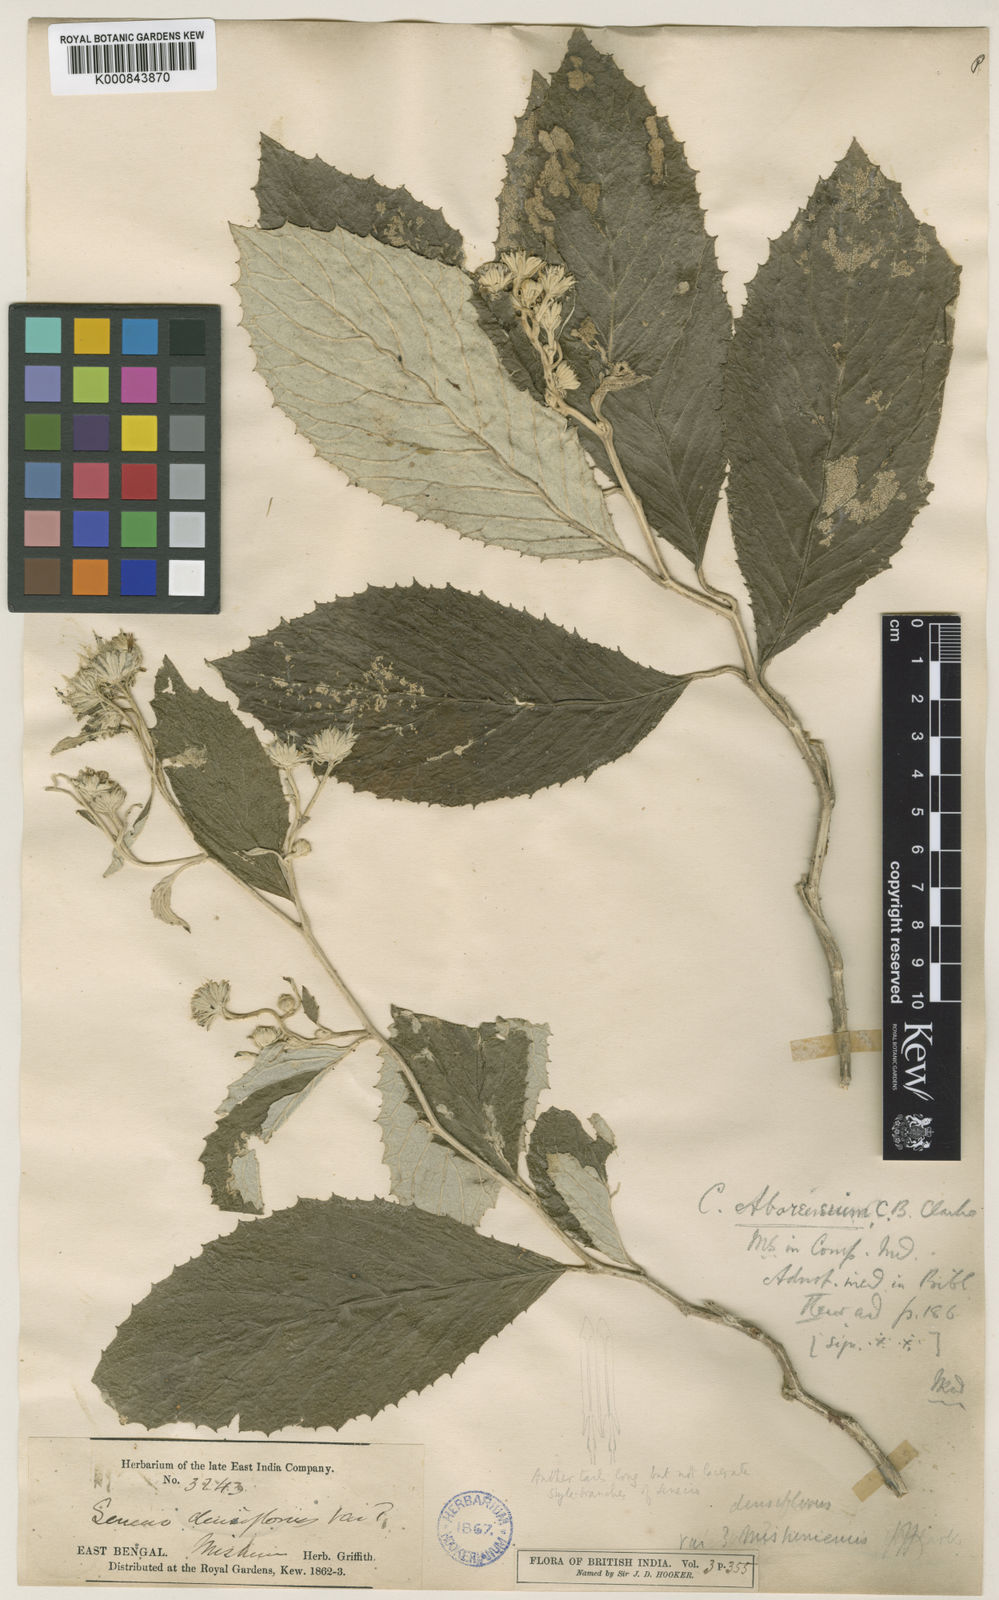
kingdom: Plantae
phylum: Tracheophyta
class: Magnoliopsida
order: Asterales
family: Asteraceae
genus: Synotis
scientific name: Synotis nagensium
